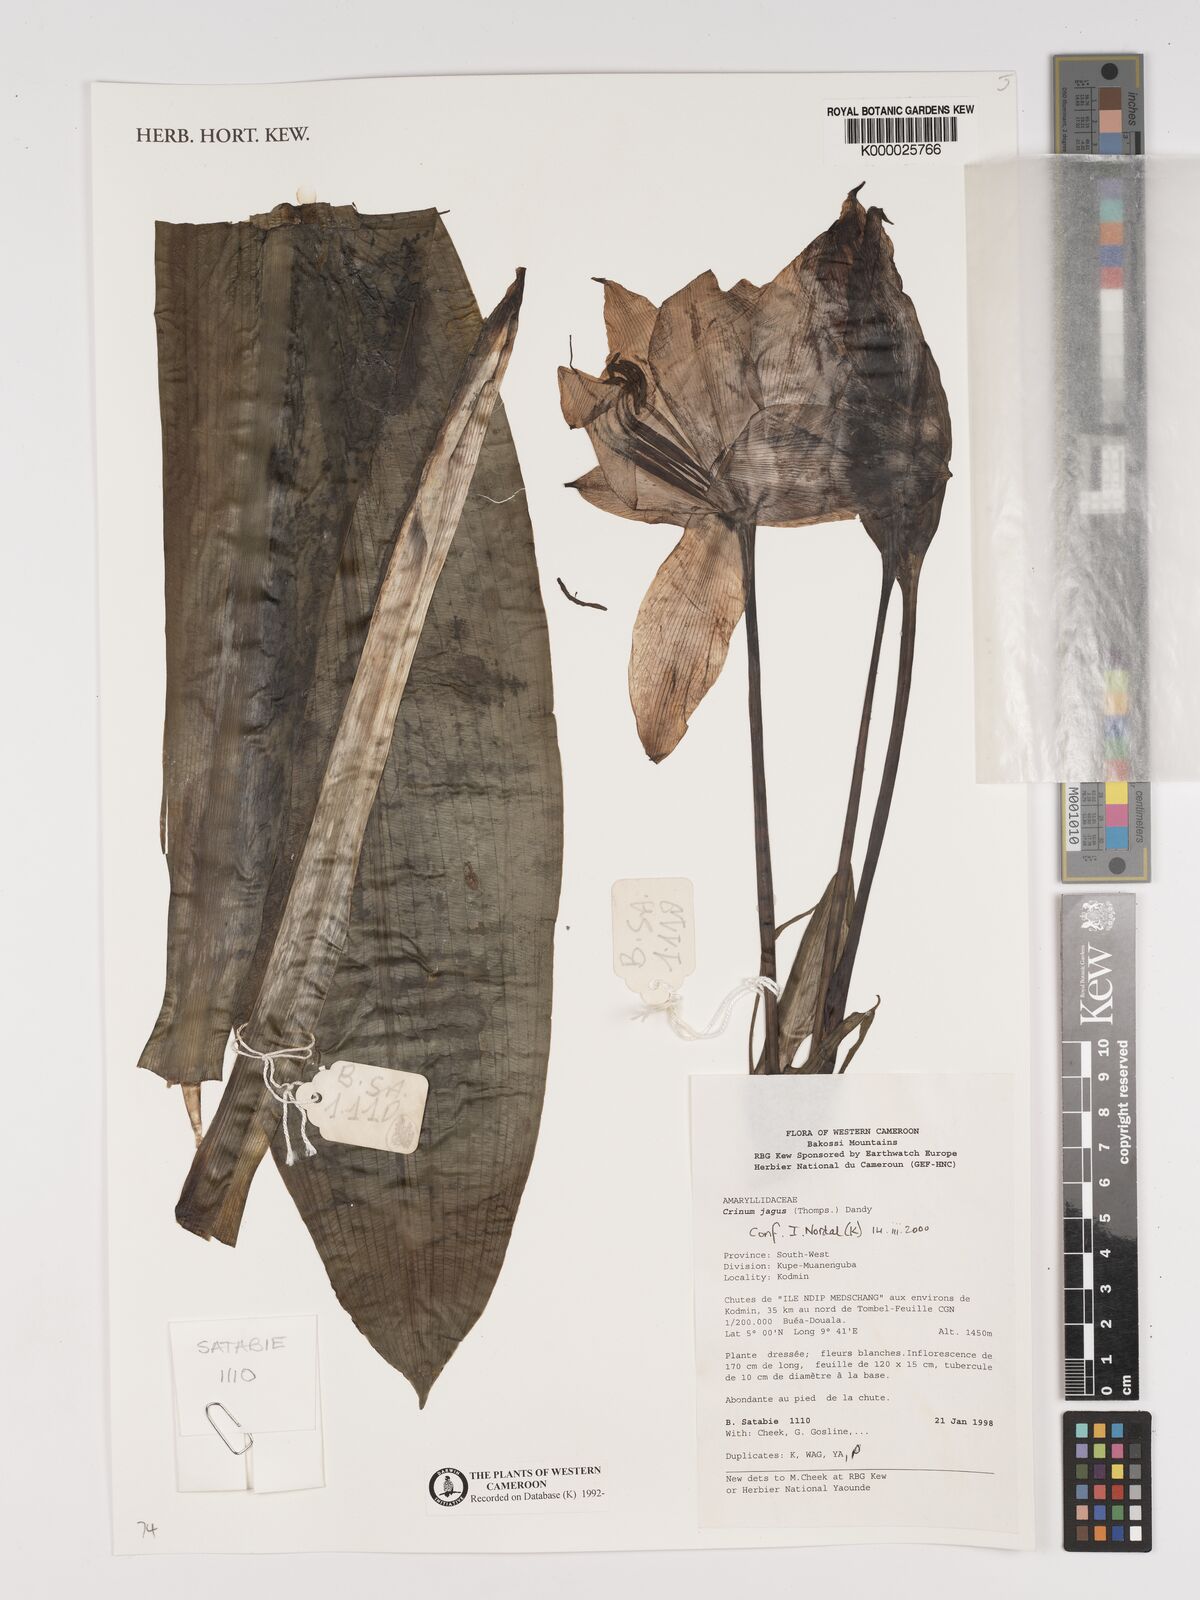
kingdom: Plantae
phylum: Tracheophyta
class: Liliopsida
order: Asparagales
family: Amaryllidaceae
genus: Crinum
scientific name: Crinum jagus
